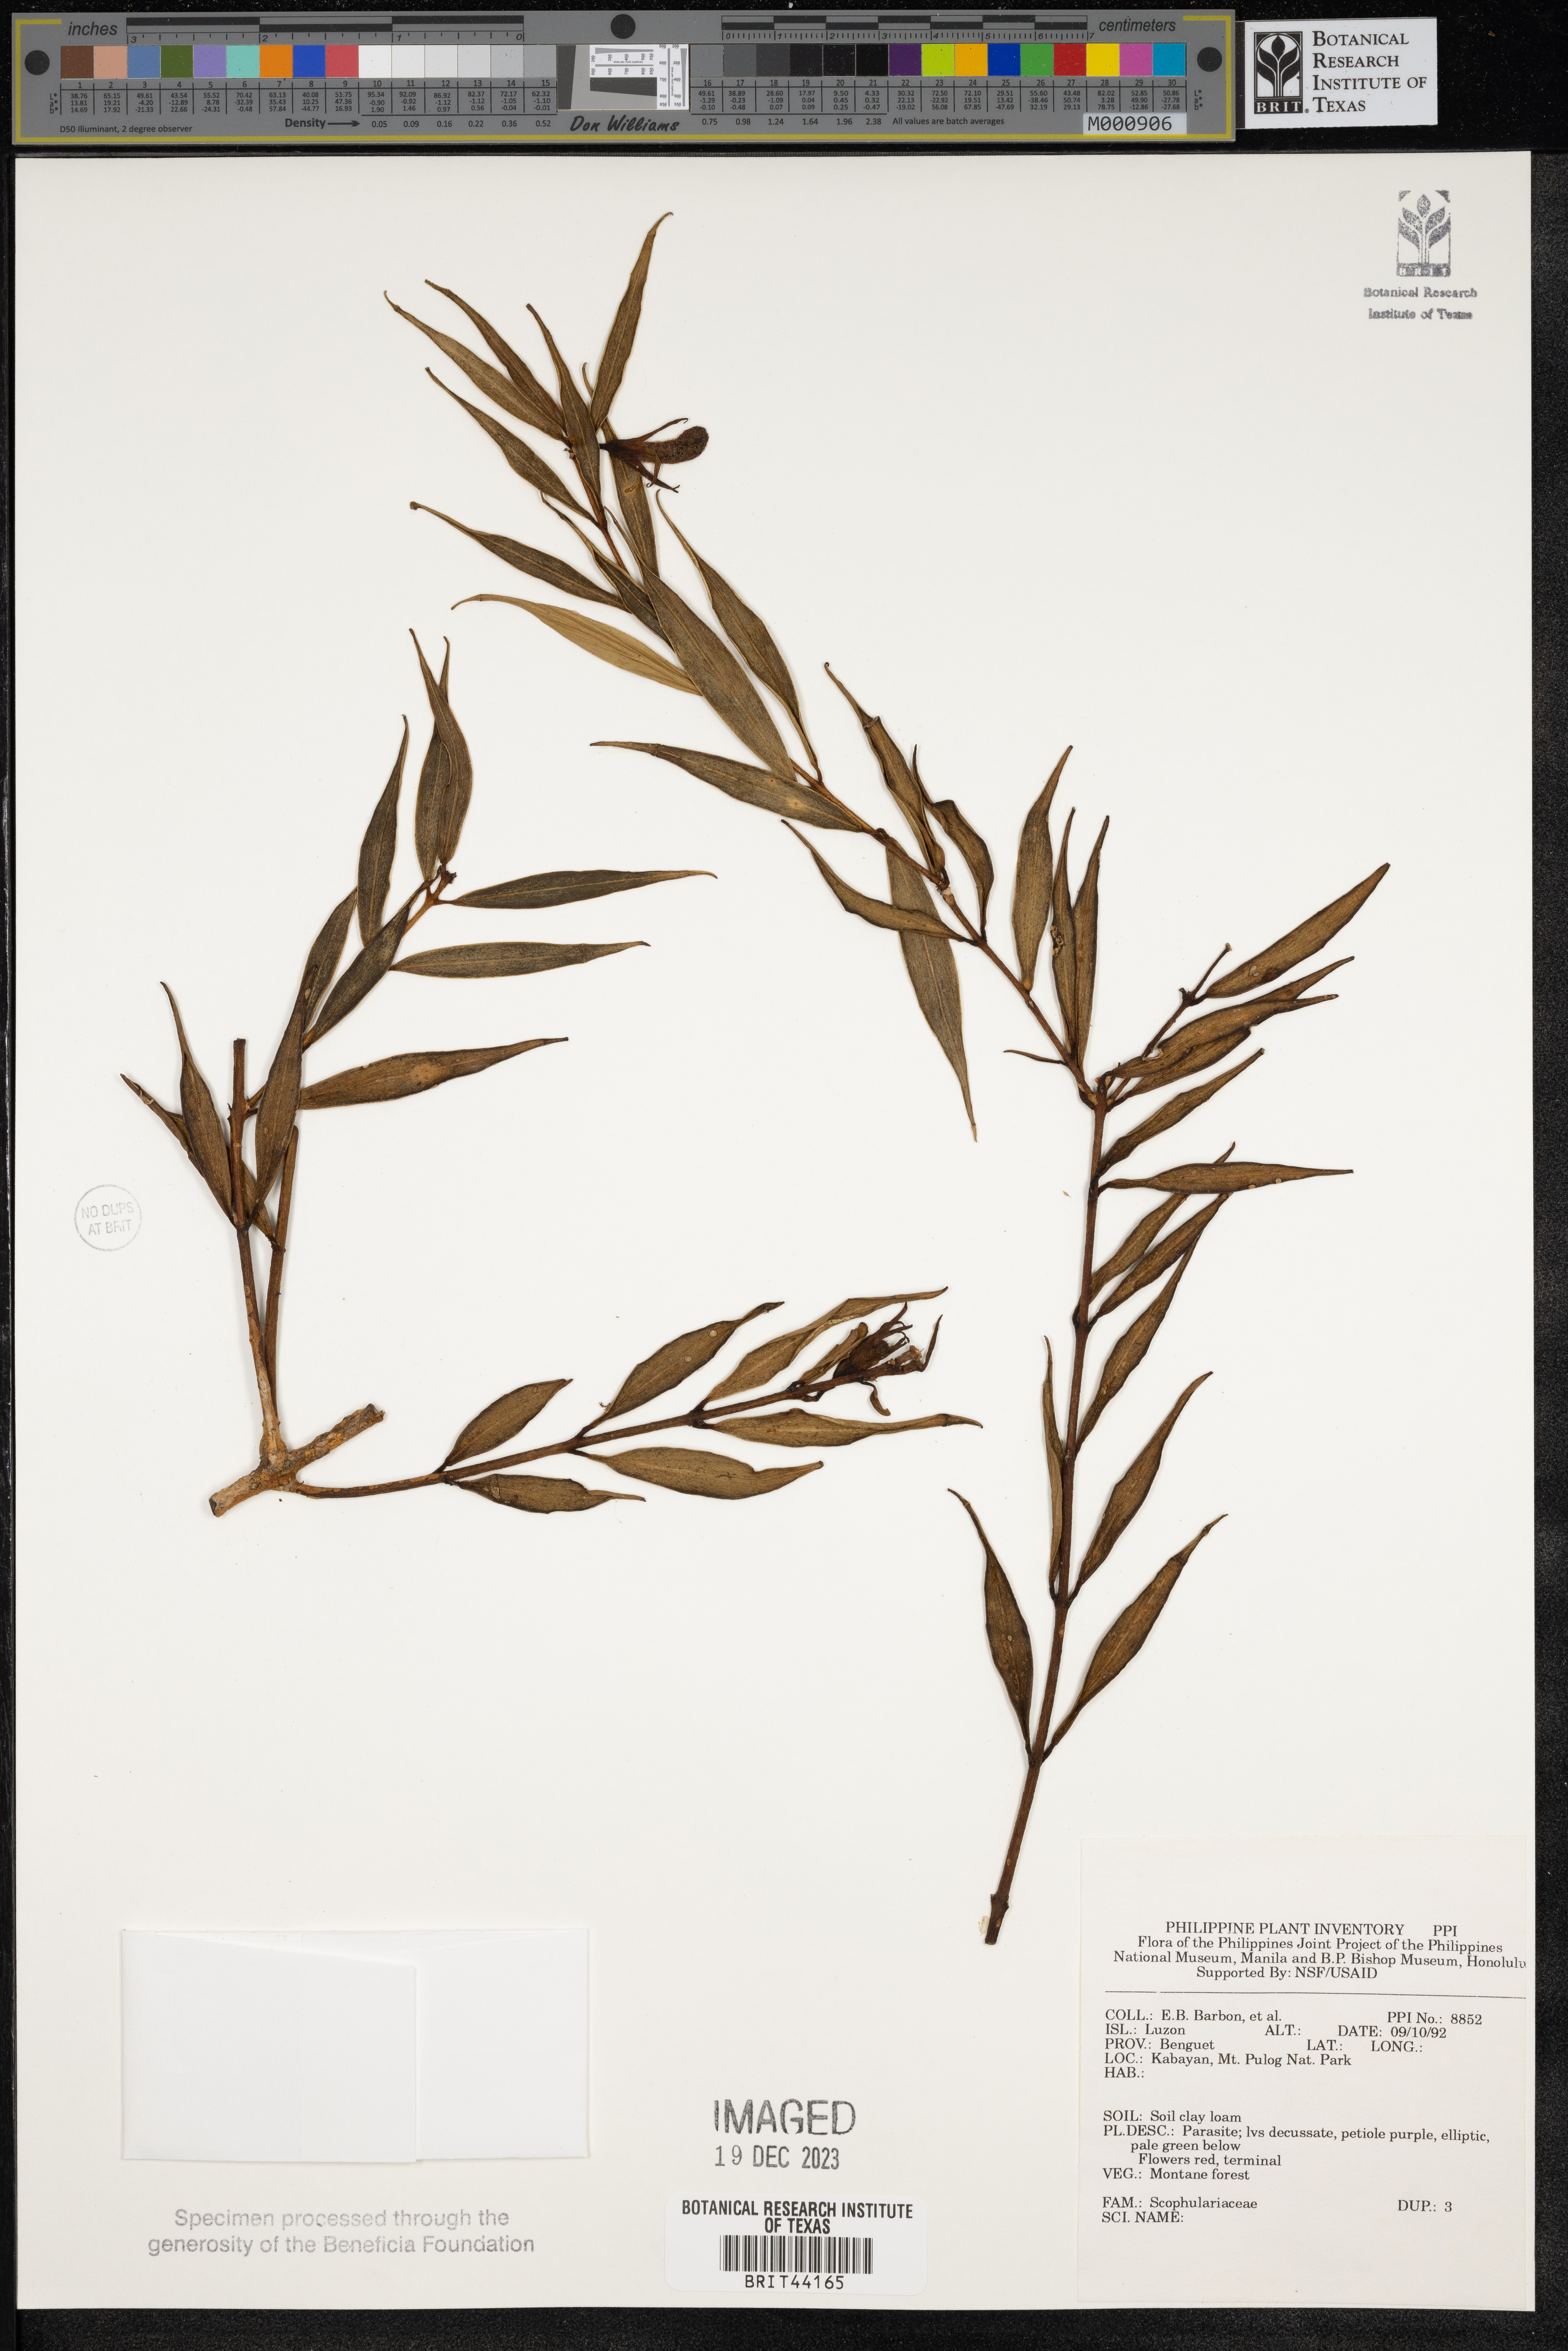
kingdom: Plantae
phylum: Tracheophyta
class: Magnoliopsida
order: Lamiales
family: Scrophulariaceae
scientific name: Scrophulariaceae
